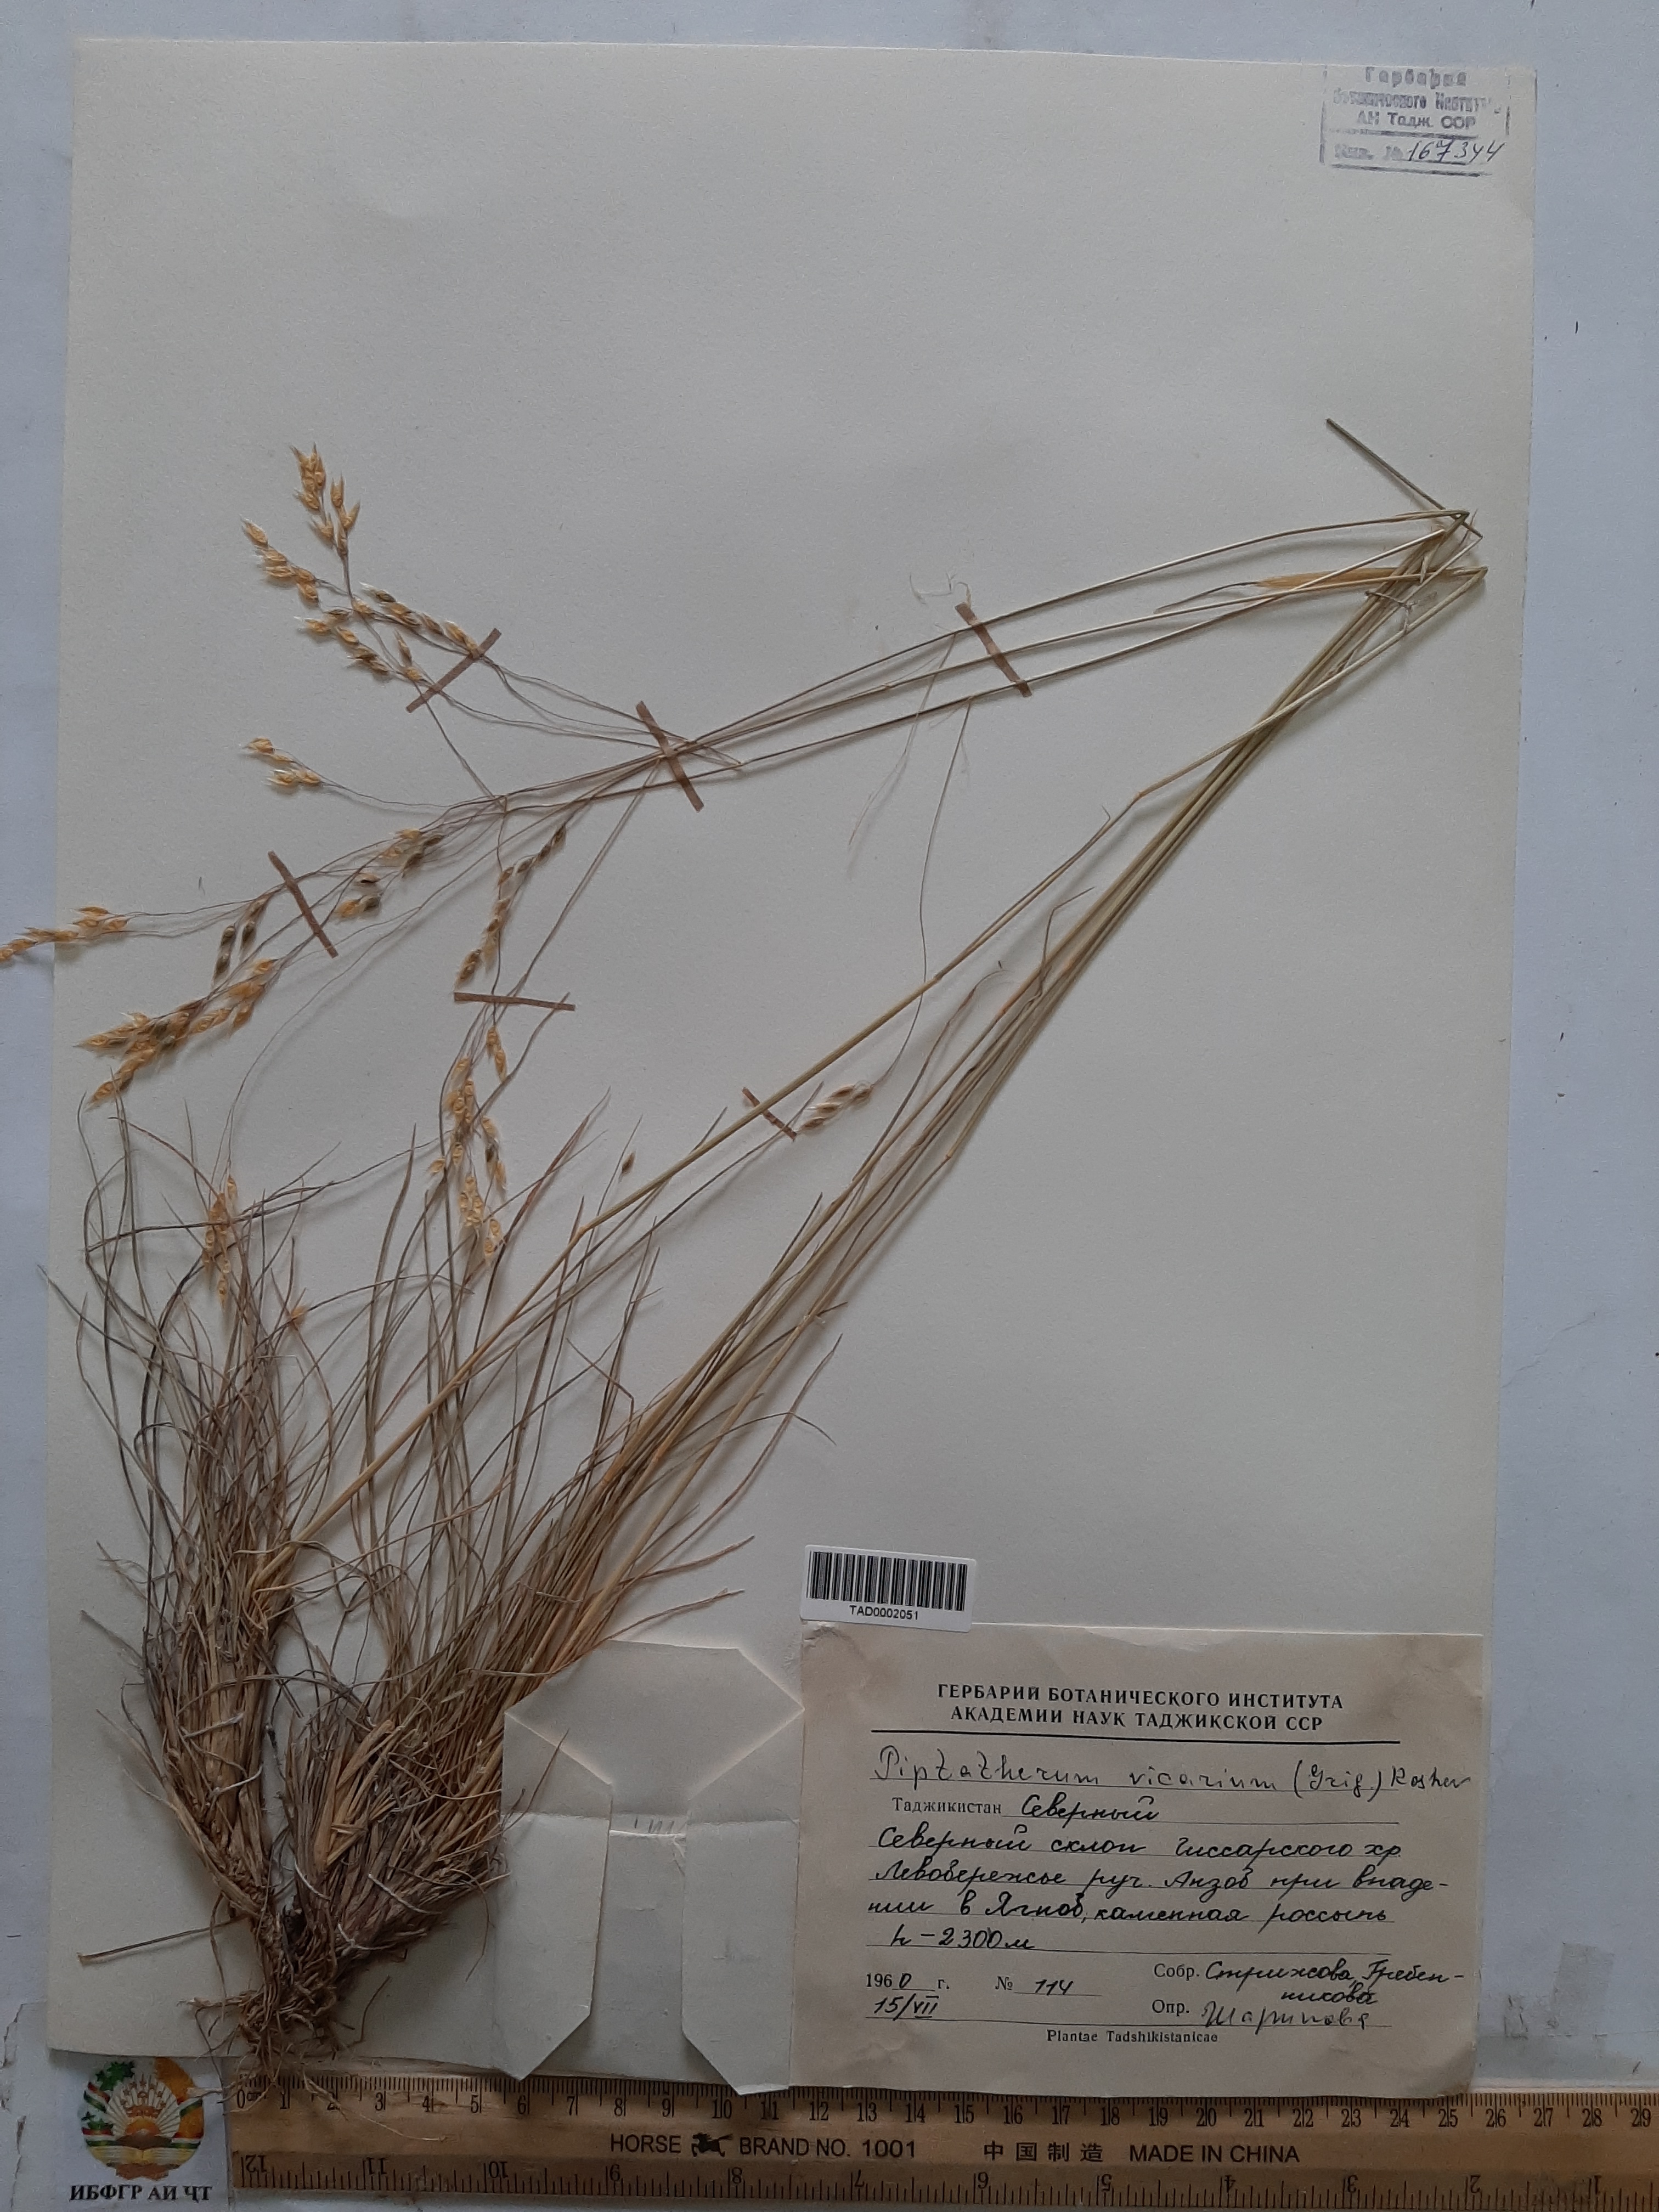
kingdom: Plantae
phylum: Tracheophyta
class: Liliopsida
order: Poales
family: Poaceae
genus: Piptatherum
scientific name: Piptatherum sogdianum
